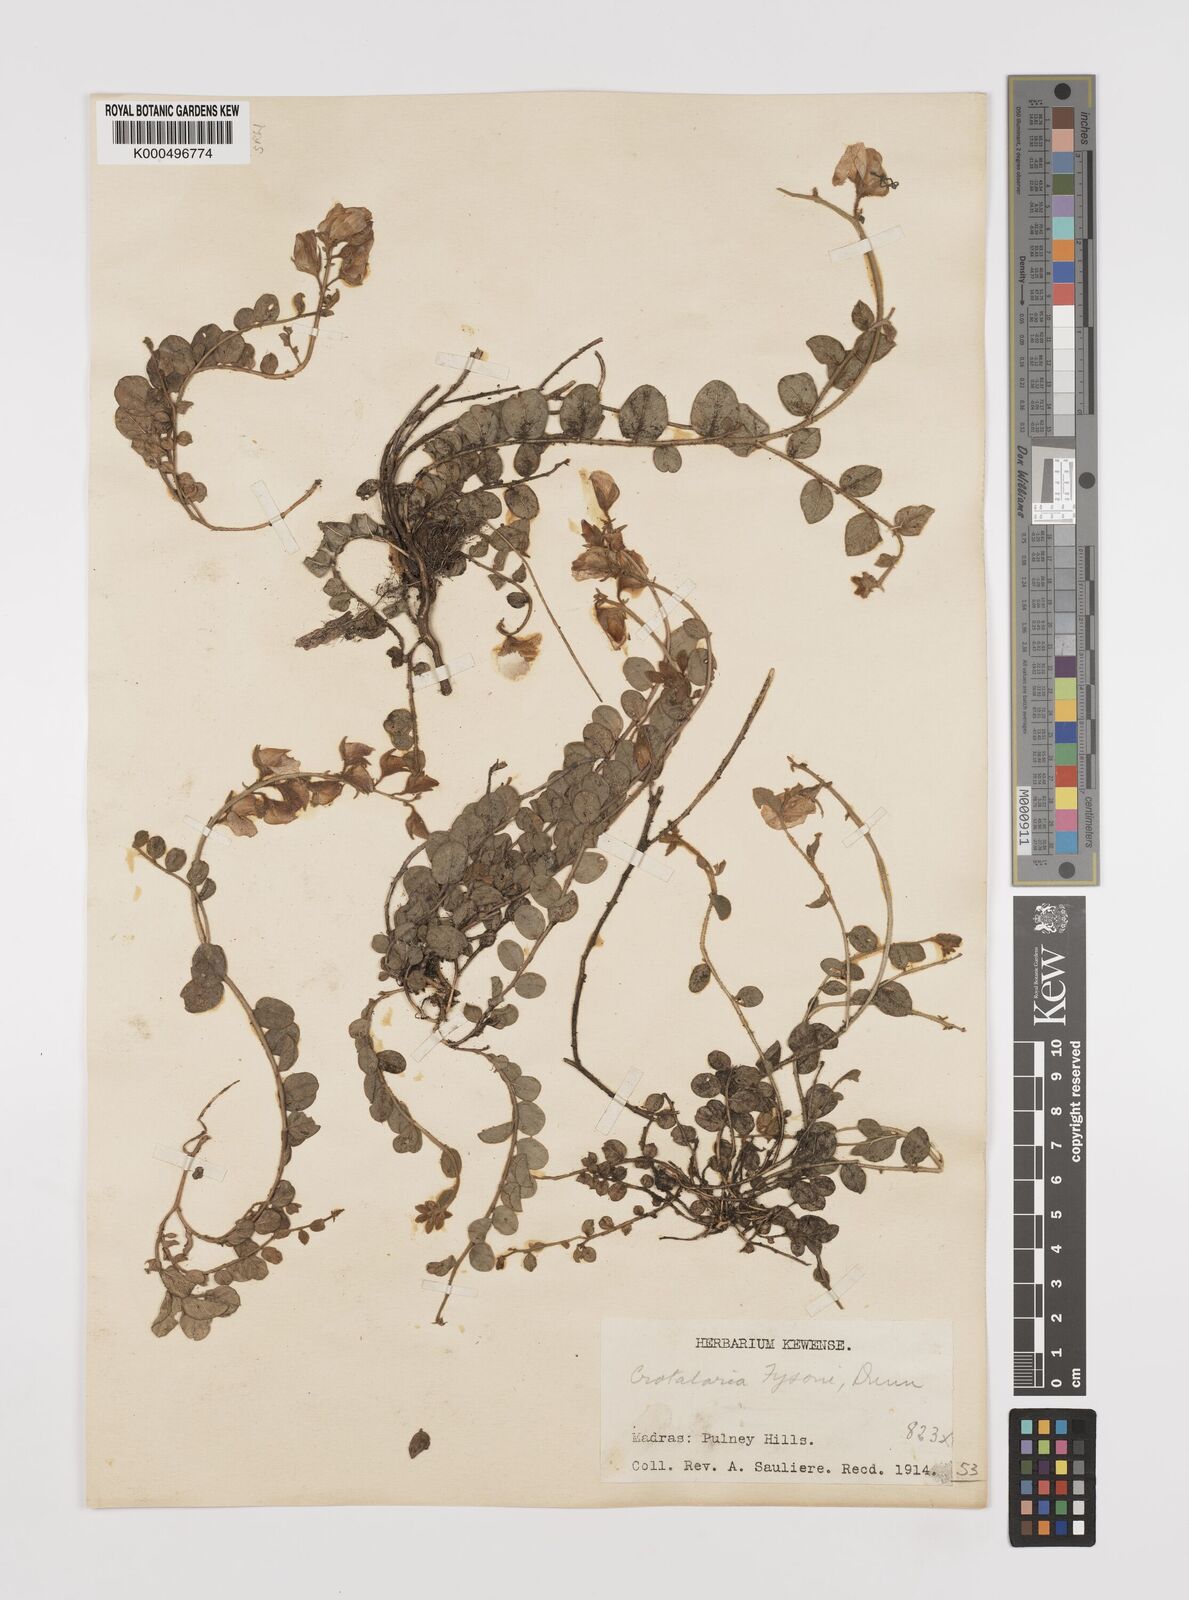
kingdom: Plantae
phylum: Tracheophyta
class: Magnoliopsida
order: Fabales
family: Fabaceae
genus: Crotalaria
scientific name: Crotalaria fysonii
